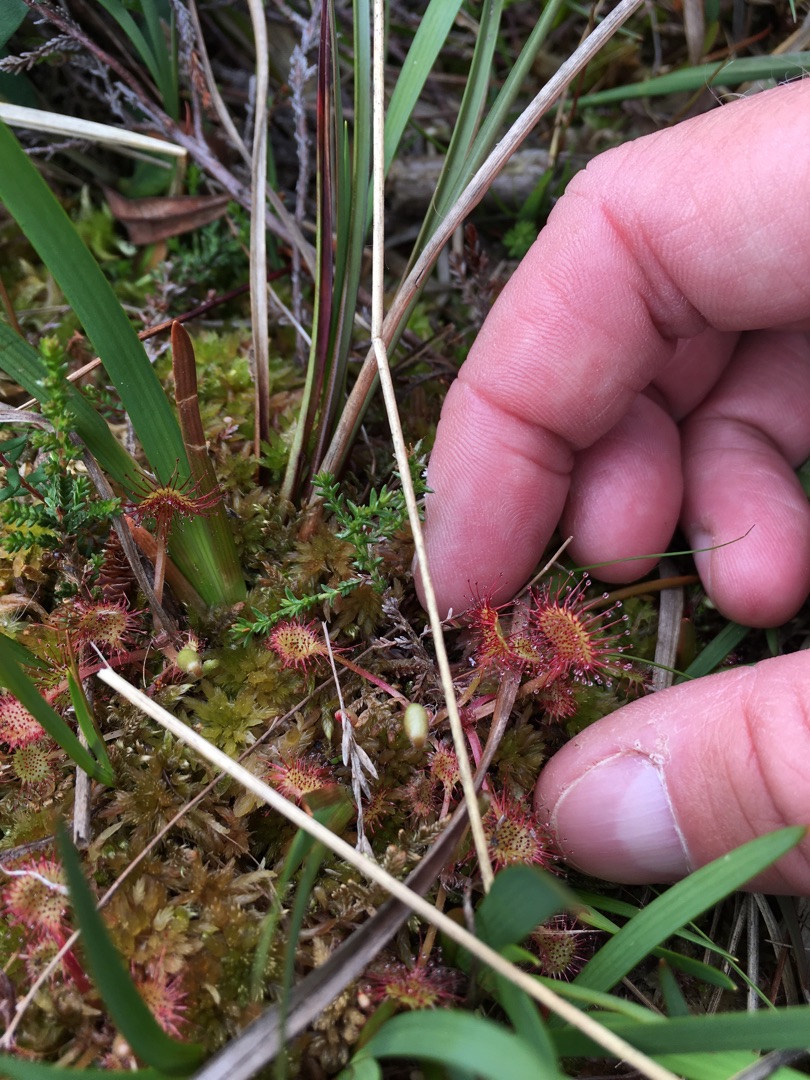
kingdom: Plantae
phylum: Tracheophyta
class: Magnoliopsida
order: Caryophyllales
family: Droseraceae
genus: Drosera
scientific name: Drosera rotundifolia
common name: Rundbladet soldug
